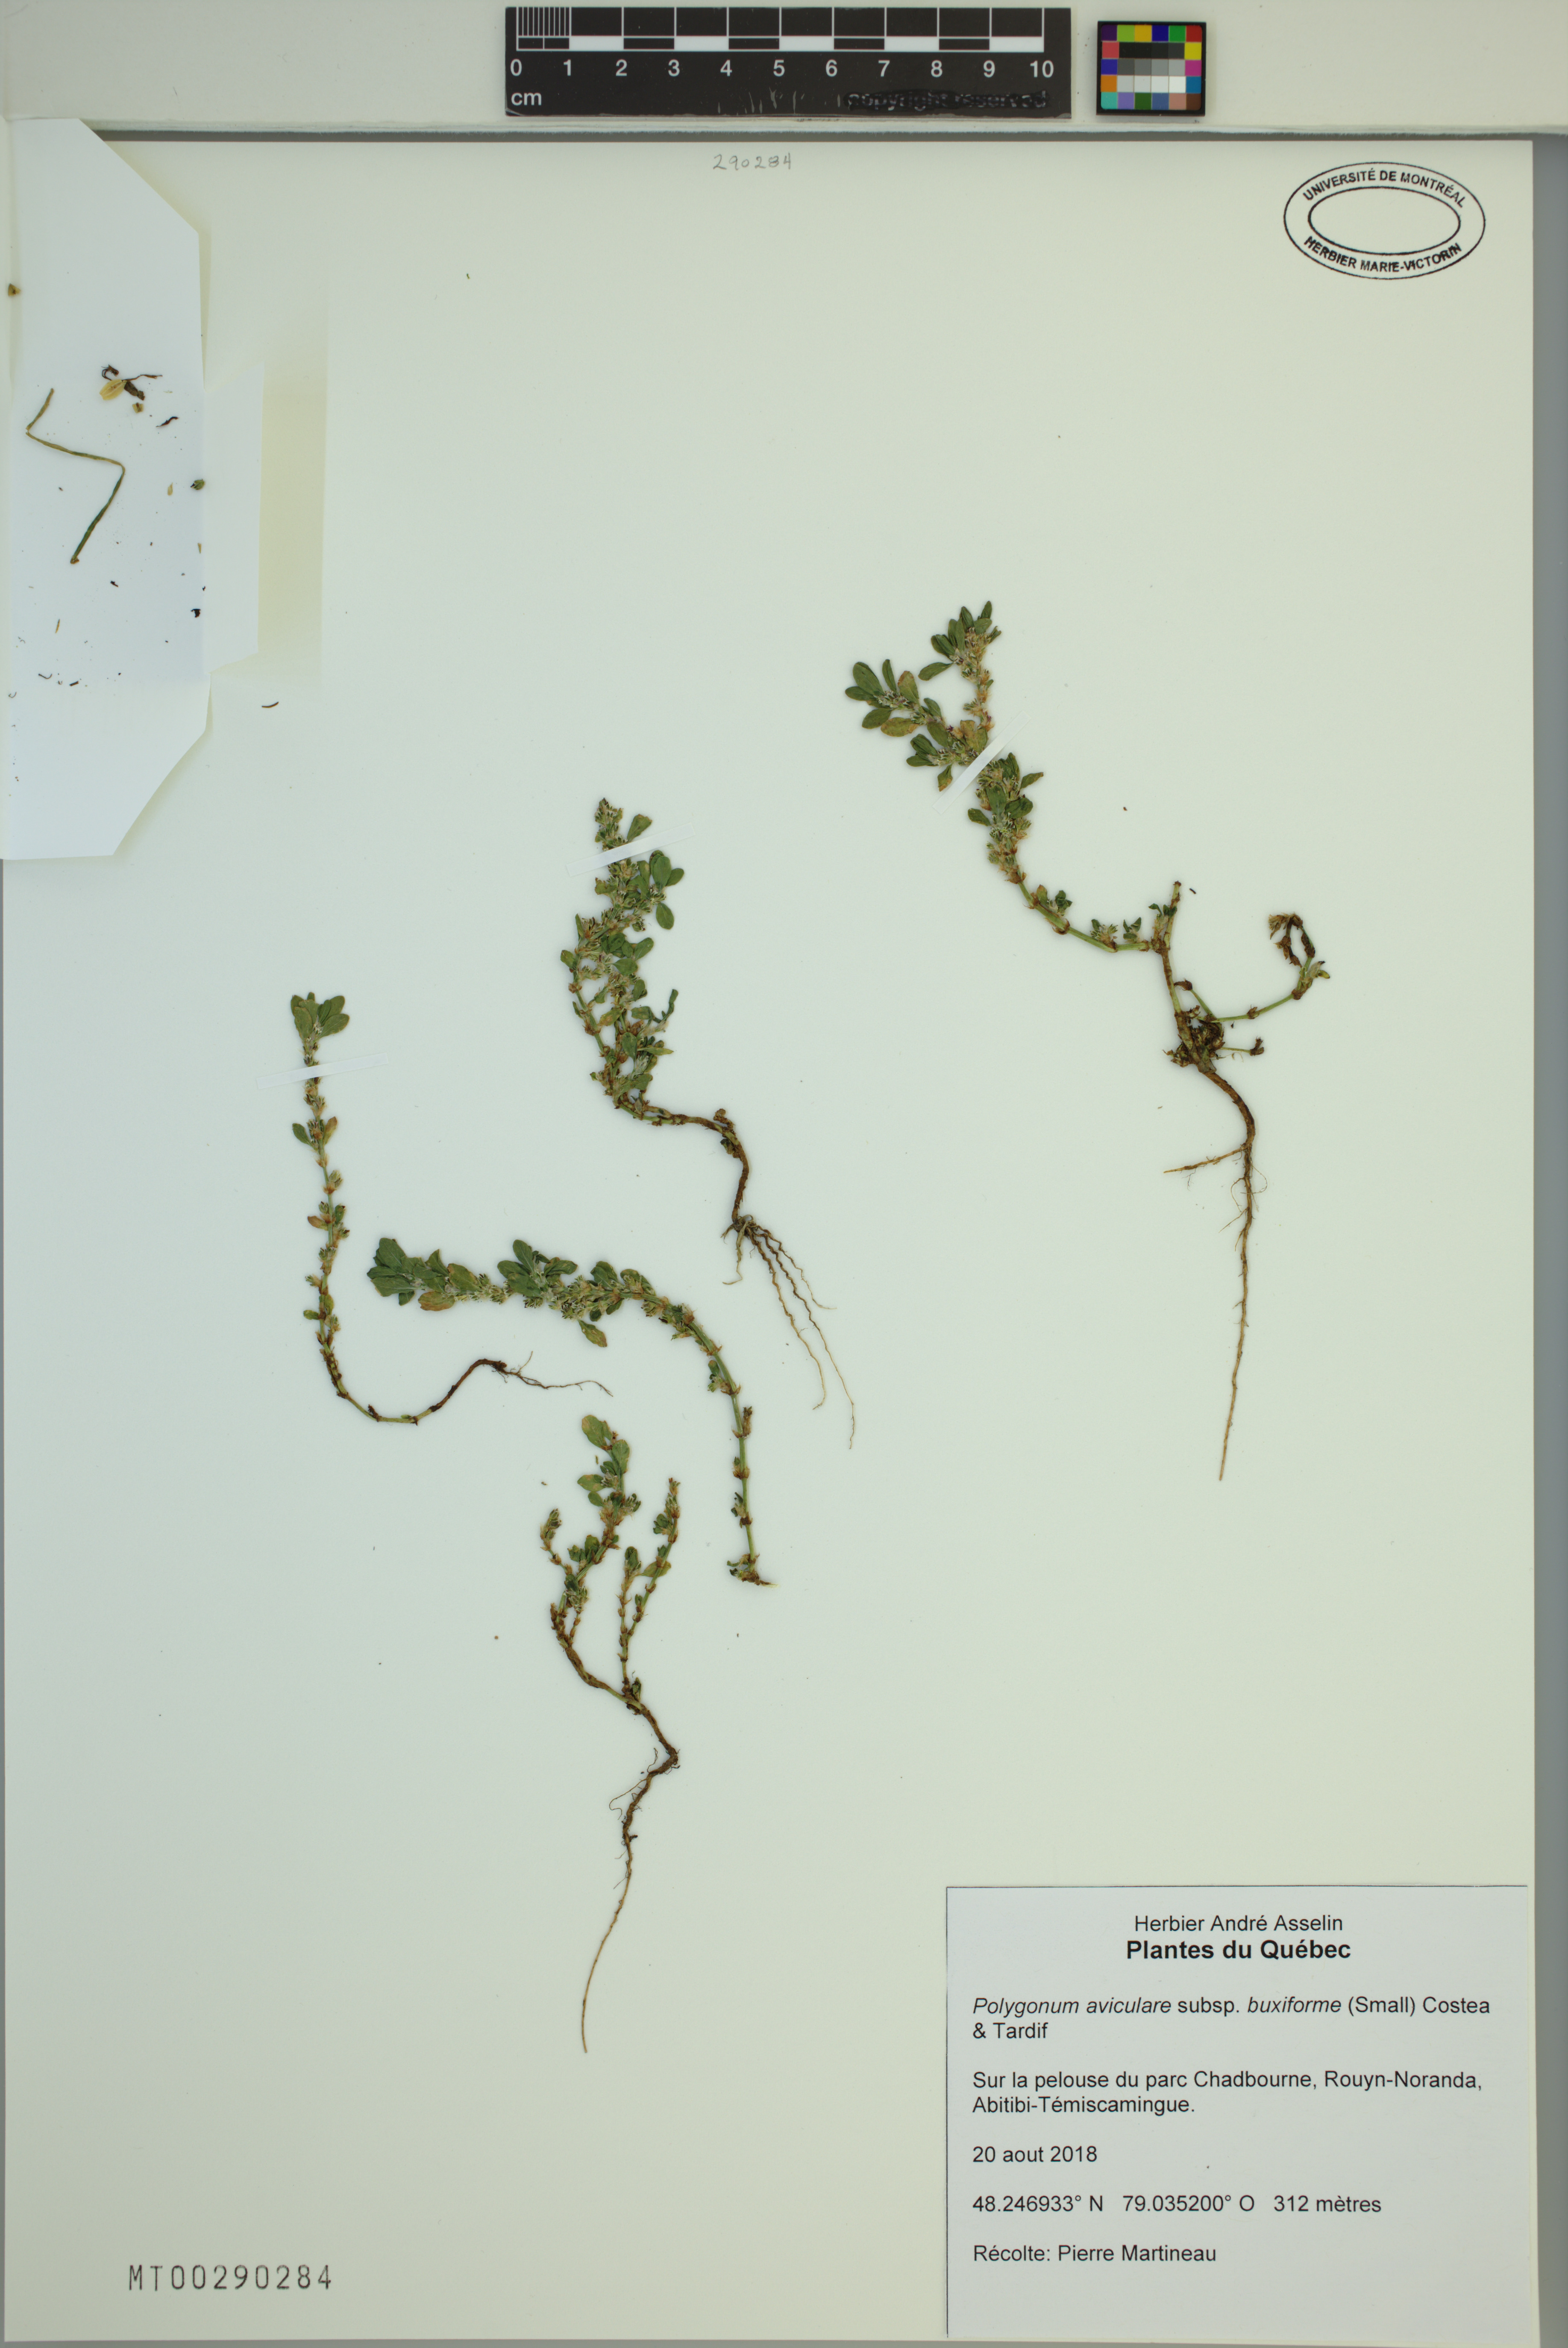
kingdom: Plantae
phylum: Tracheophyta
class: Magnoliopsida
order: Caryophyllales
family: Polygonaceae
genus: Polygonum
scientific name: Polygonum aviculare
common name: Prostrate knotweed
